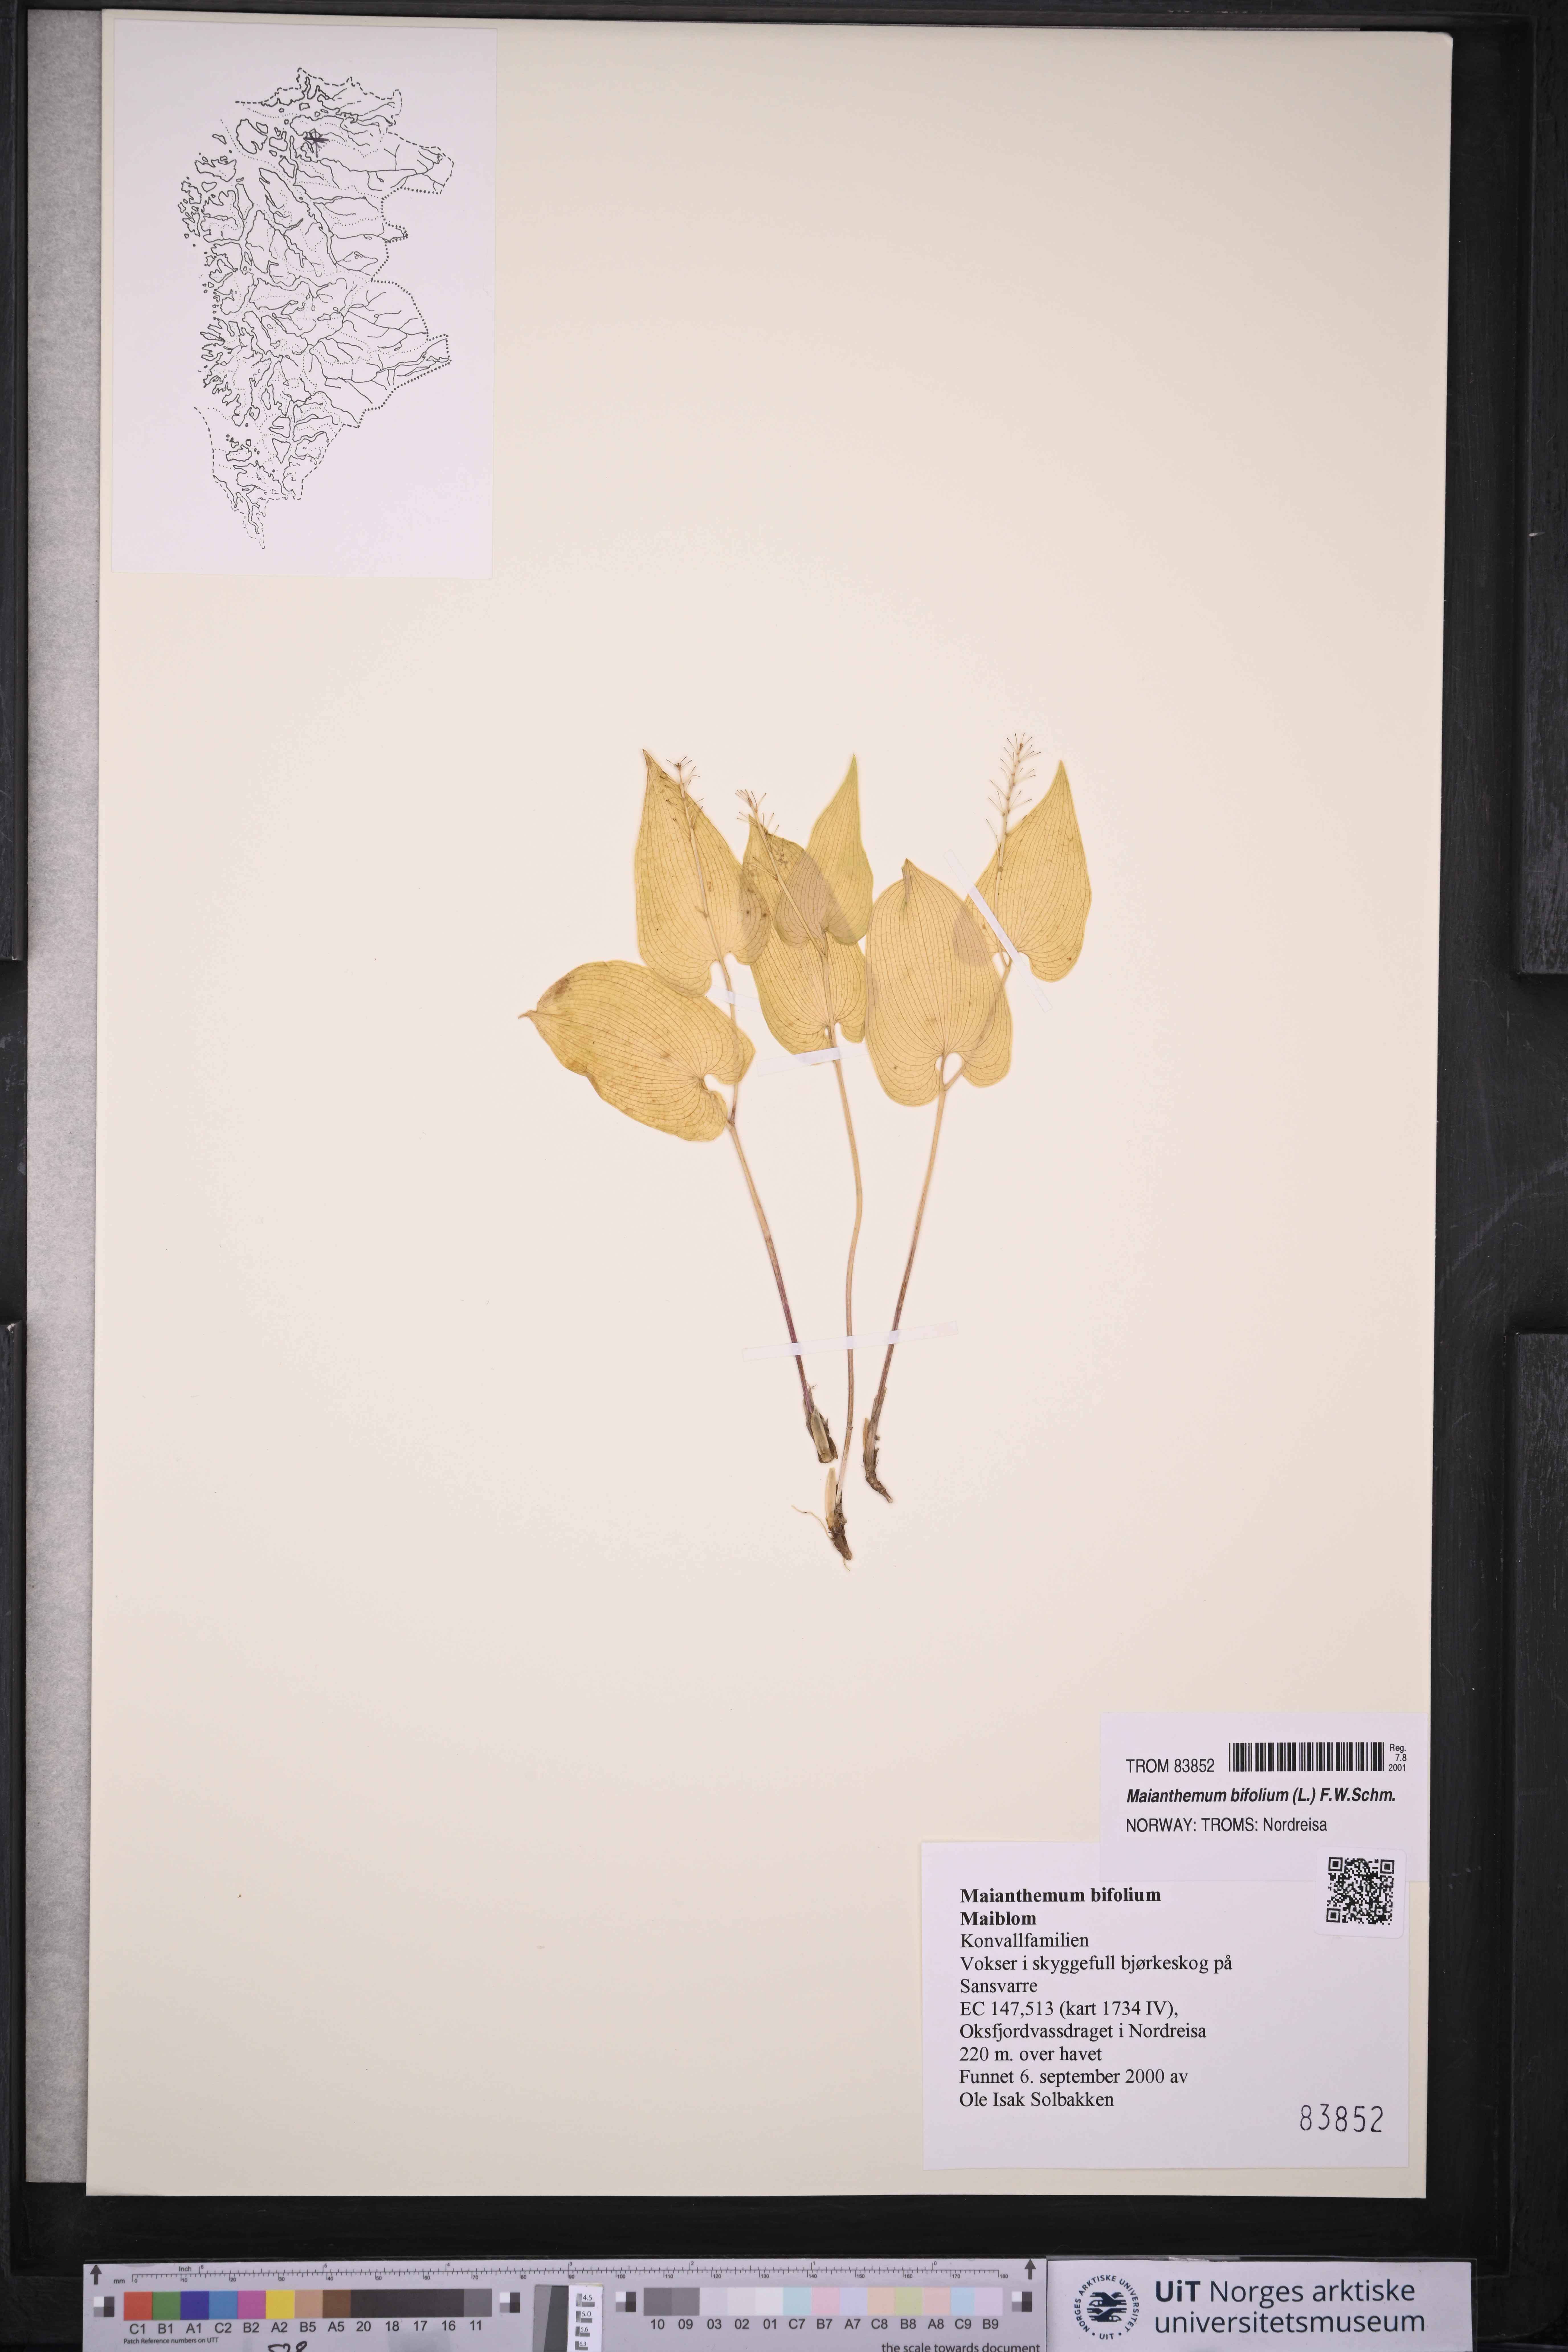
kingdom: Plantae
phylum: Tracheophyta
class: Liliopsida
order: Asparagales
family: Asparagaceae
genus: Maianthemum
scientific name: Maianthemum bifolium
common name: May lily
